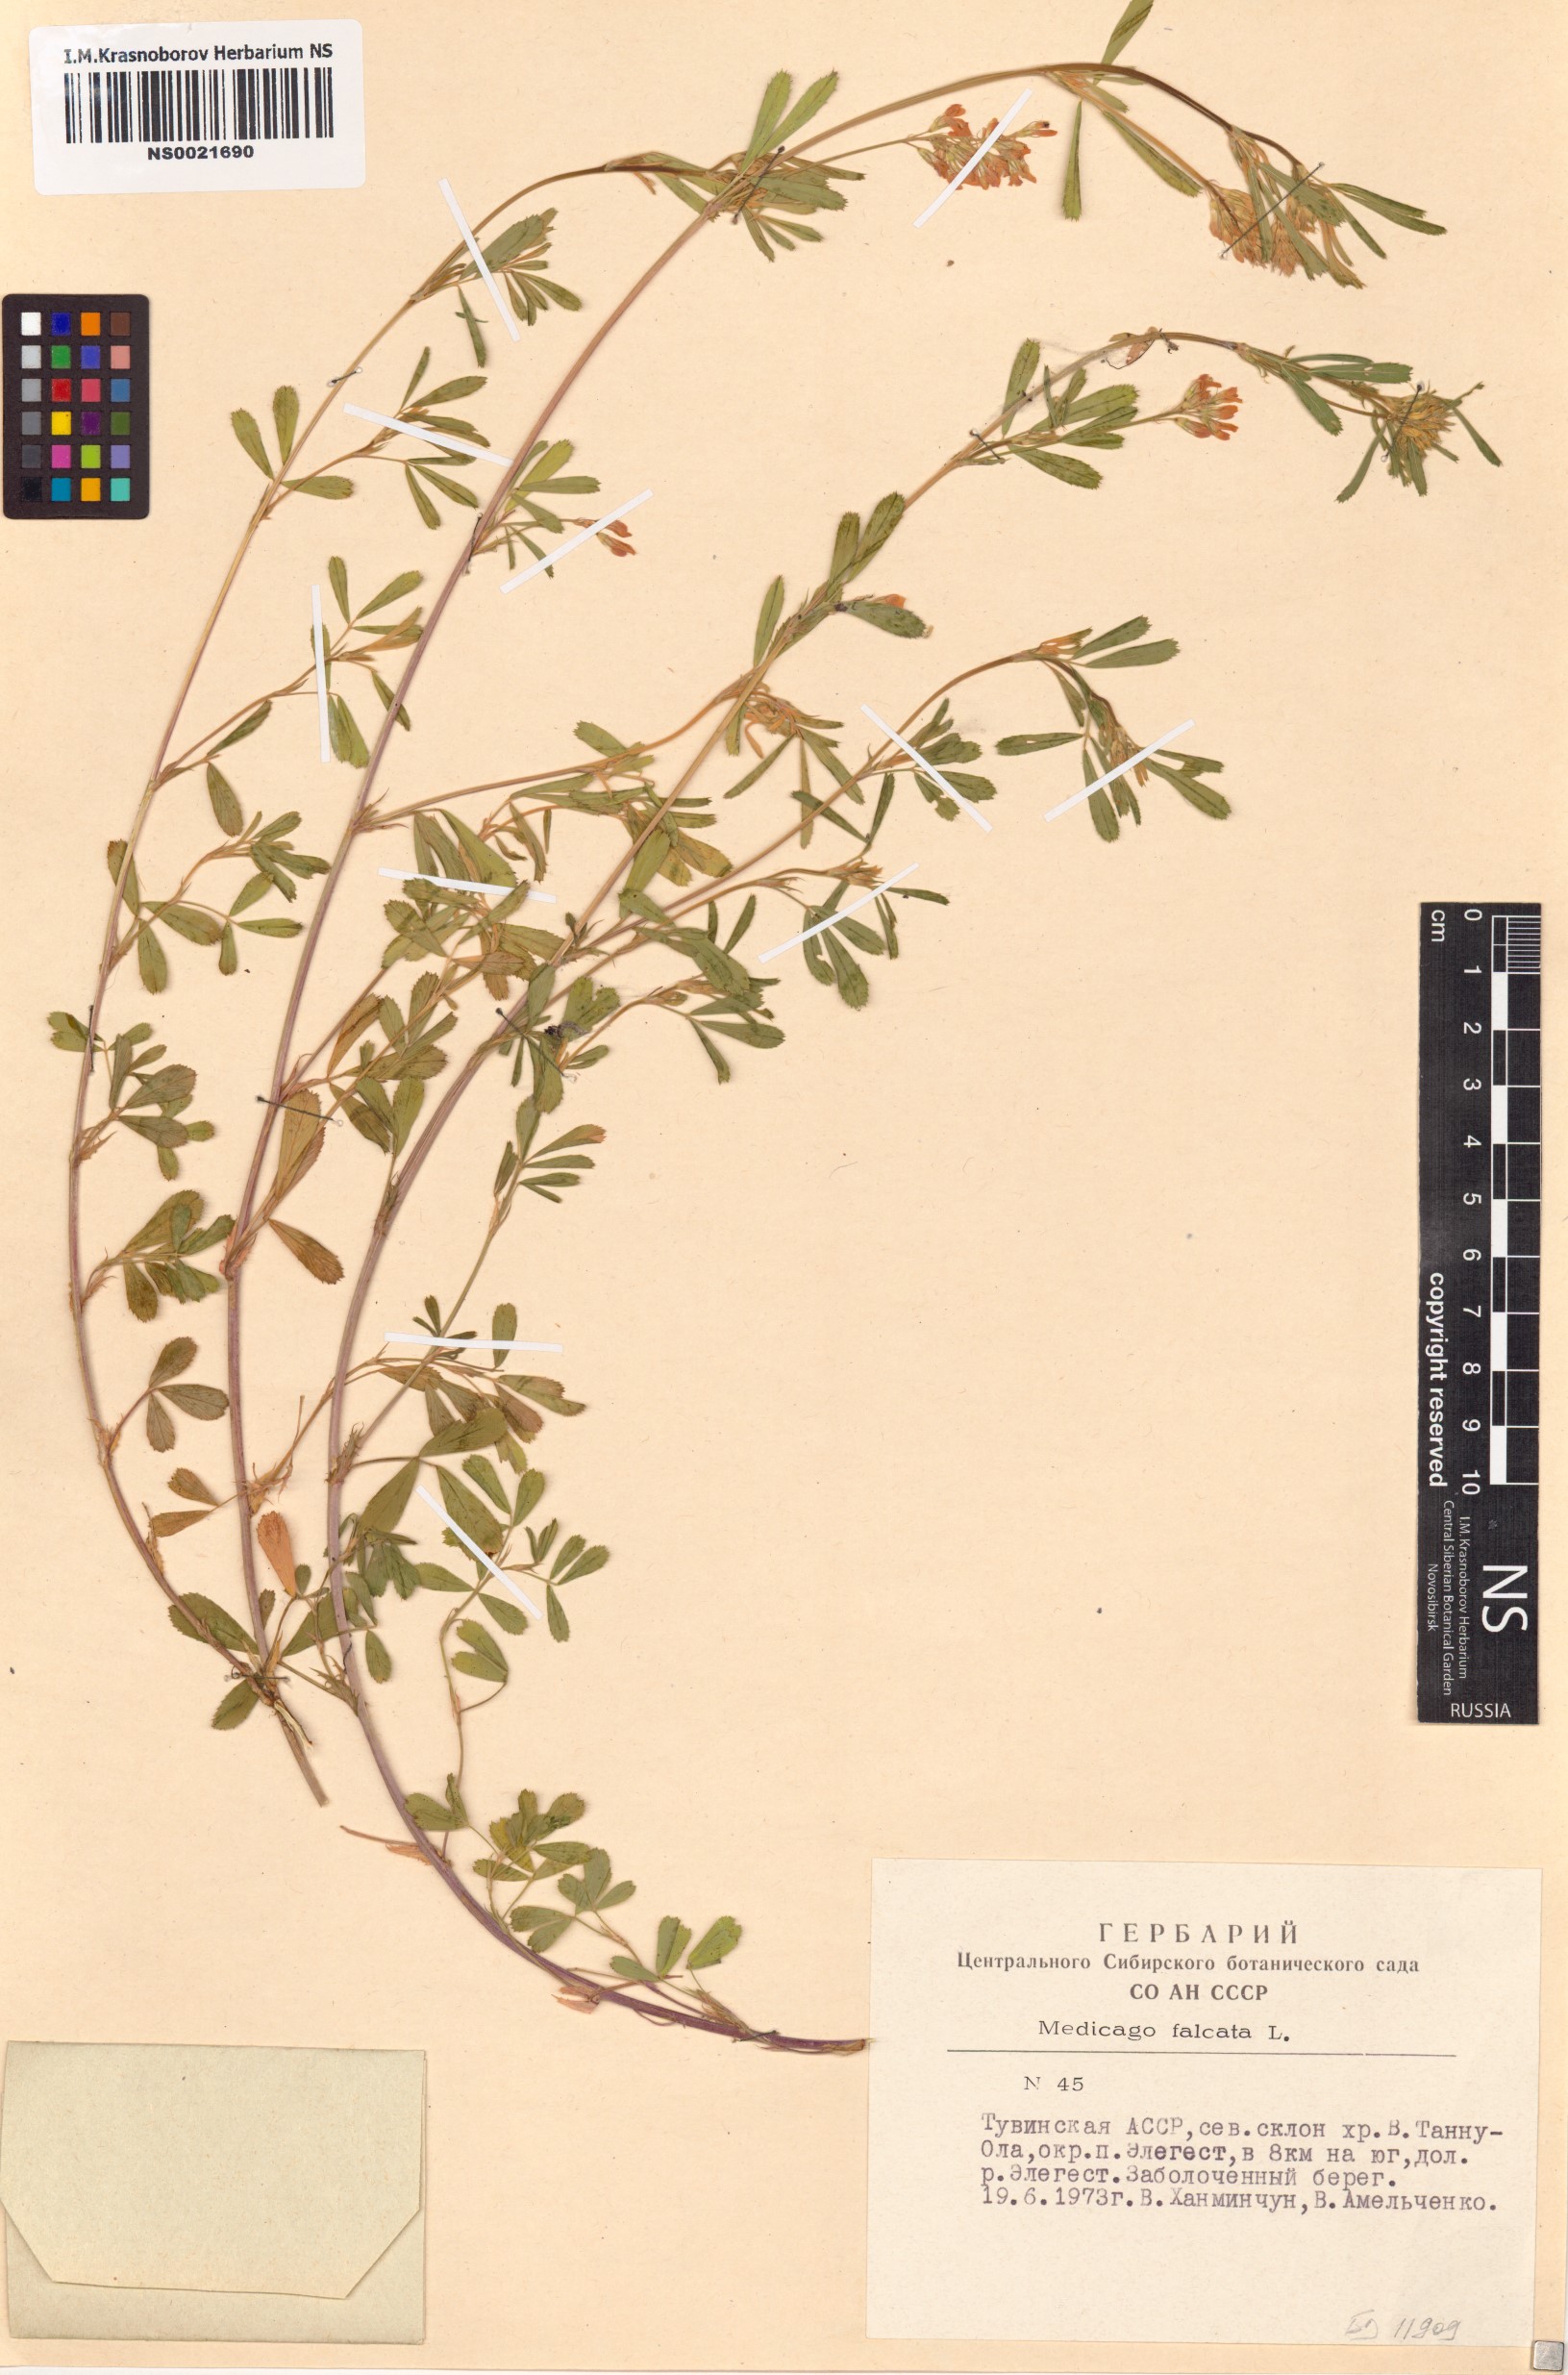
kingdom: Plantae
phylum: Tracheophyta
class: Magnoliopsida
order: Fabales
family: Fabaceae
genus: Medicago
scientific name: Medicago falcata
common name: Sickle medick
